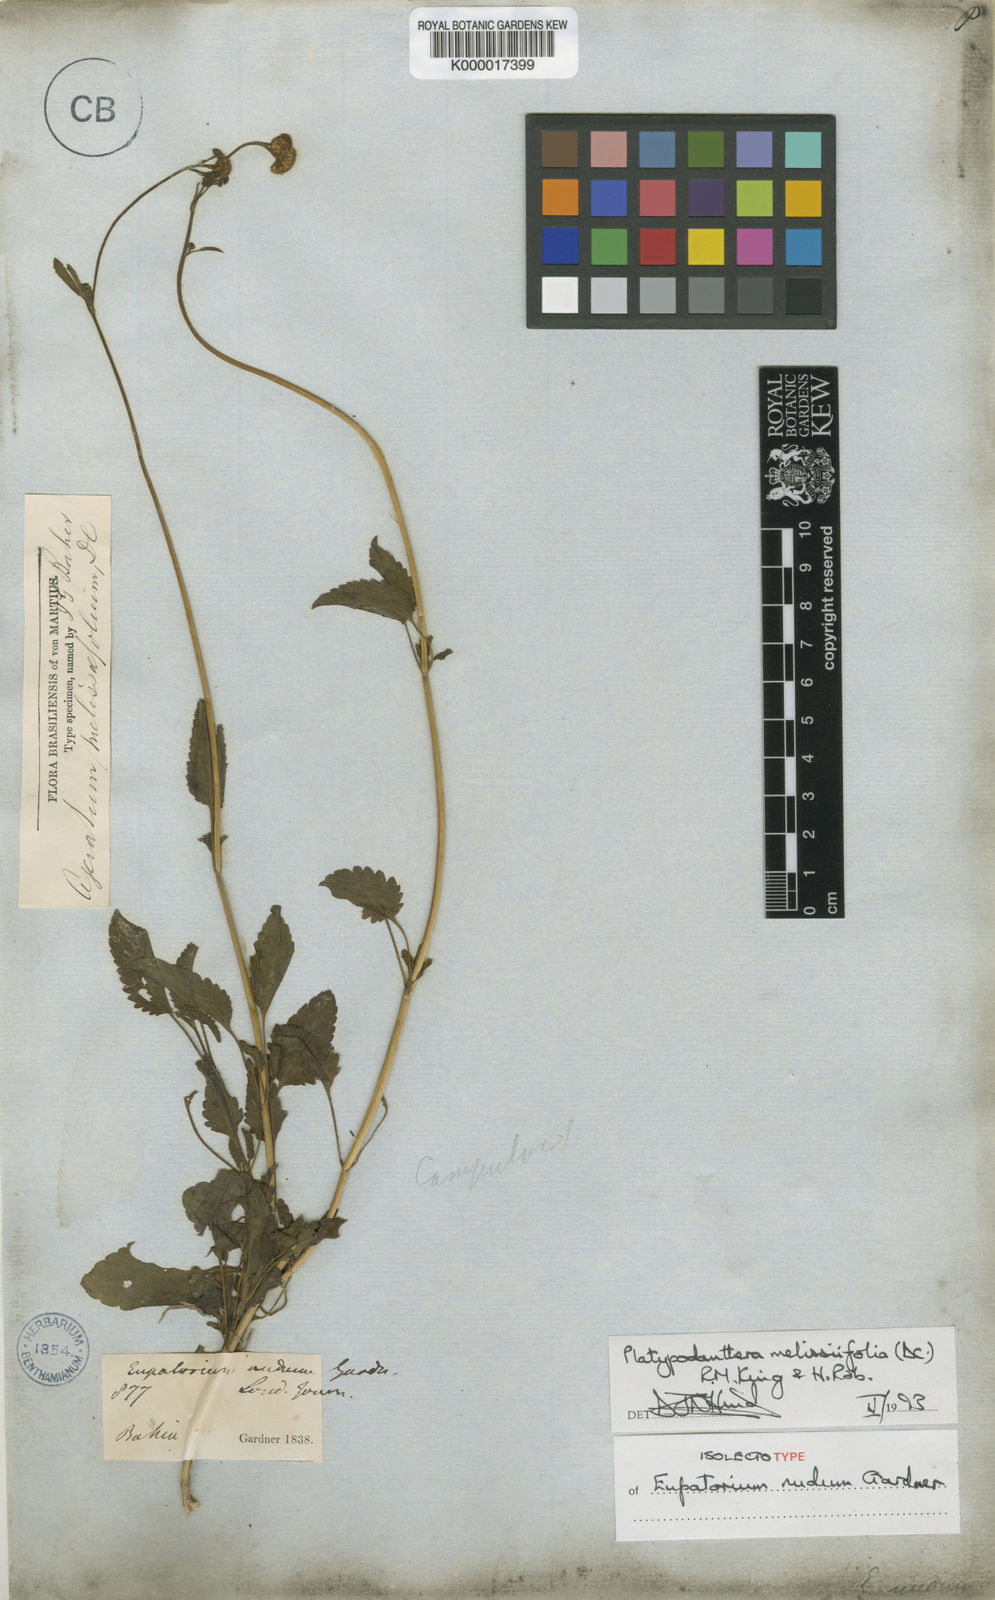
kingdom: Plantae
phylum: Tracheophyta
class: Magnoliopsida
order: Asterales
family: Asteraceae
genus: Platypodanthera
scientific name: Platypodanthera melissifolia
